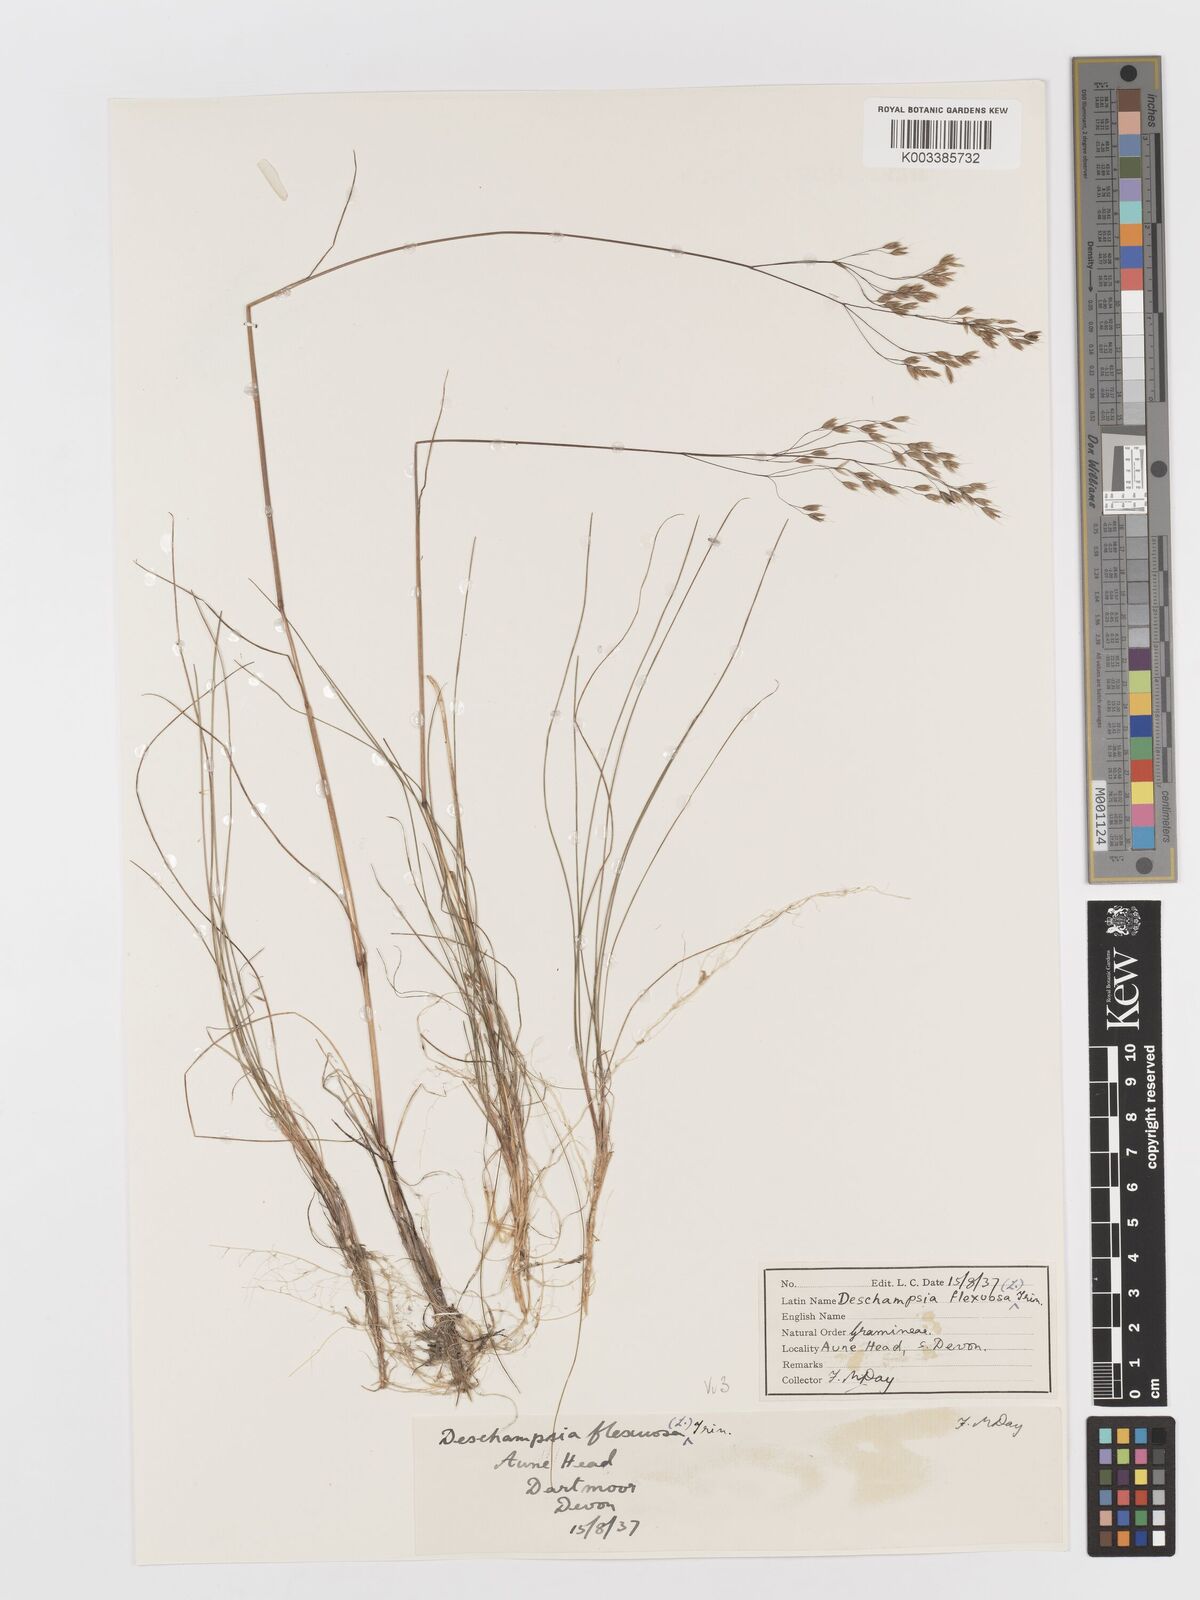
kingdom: Plantae
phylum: Tracheophyta
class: Liliopsida
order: Poales
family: Poaceae
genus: Avenella
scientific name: Avenella flexuosa
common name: Wavy hairgrass
